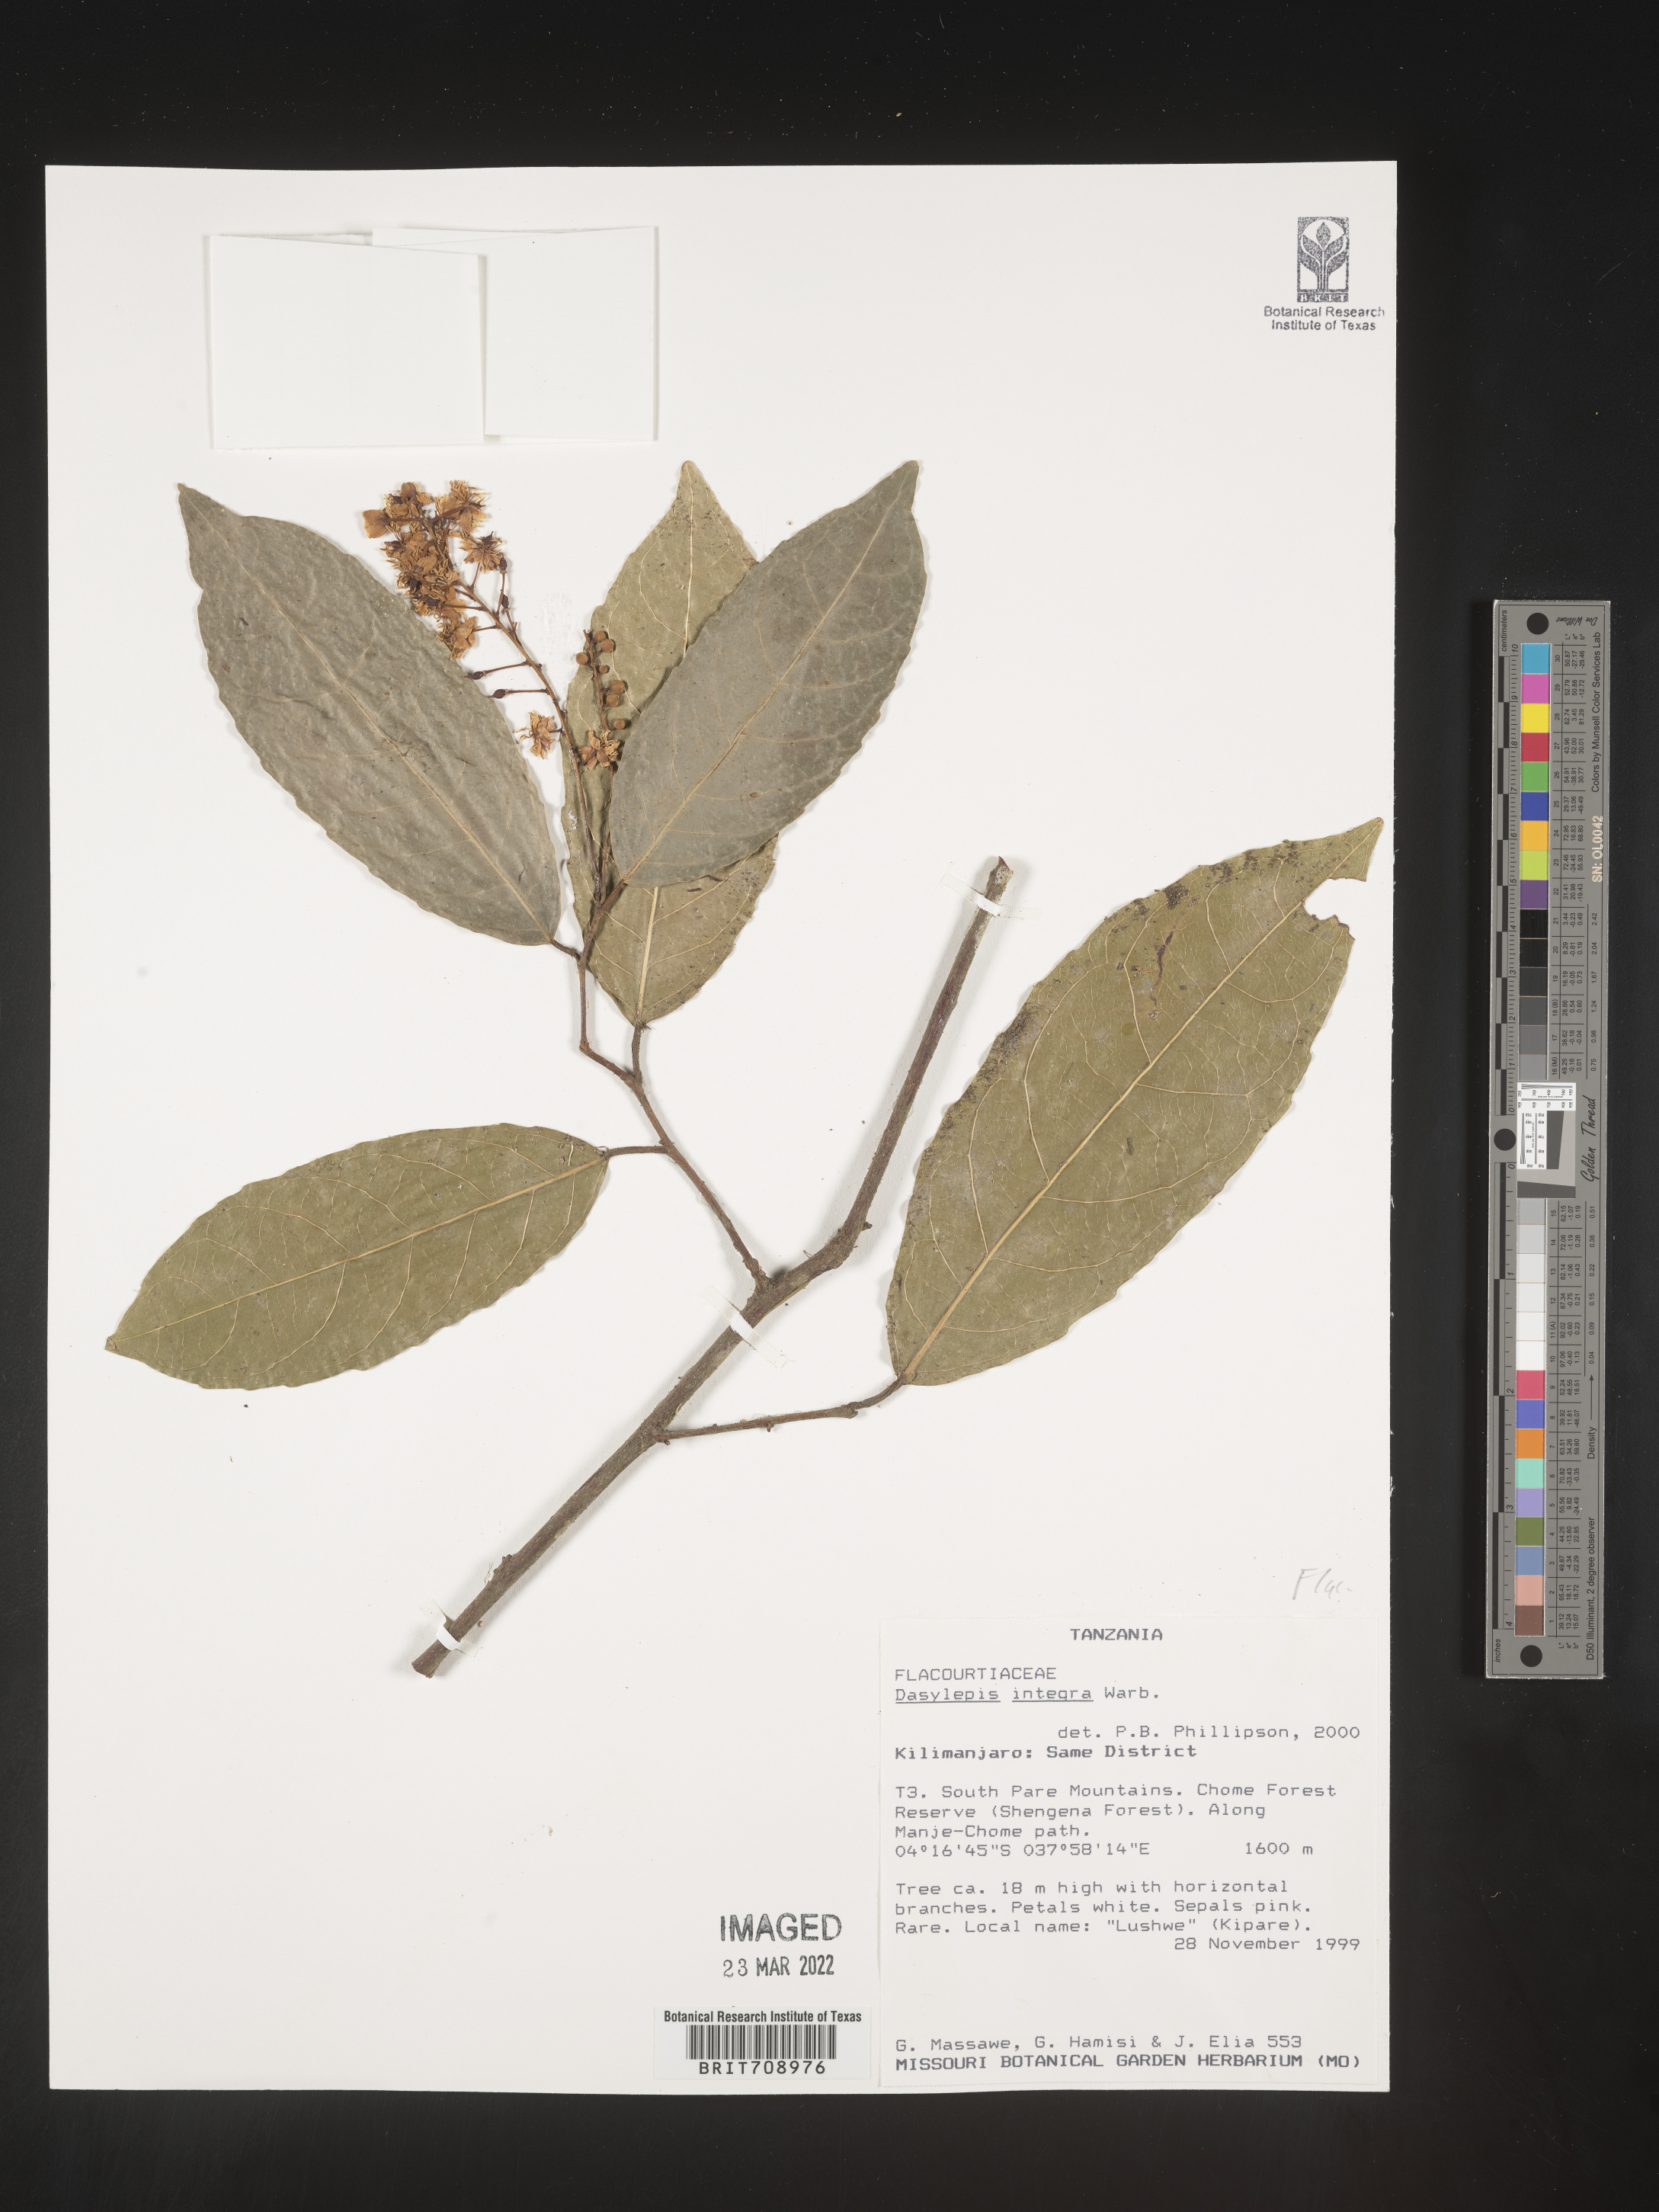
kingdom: Plantae
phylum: Tracheophyta
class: Magnoliopsida
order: Malpighiales
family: Achariaceae
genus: Dasylepis
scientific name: Dasylepis
